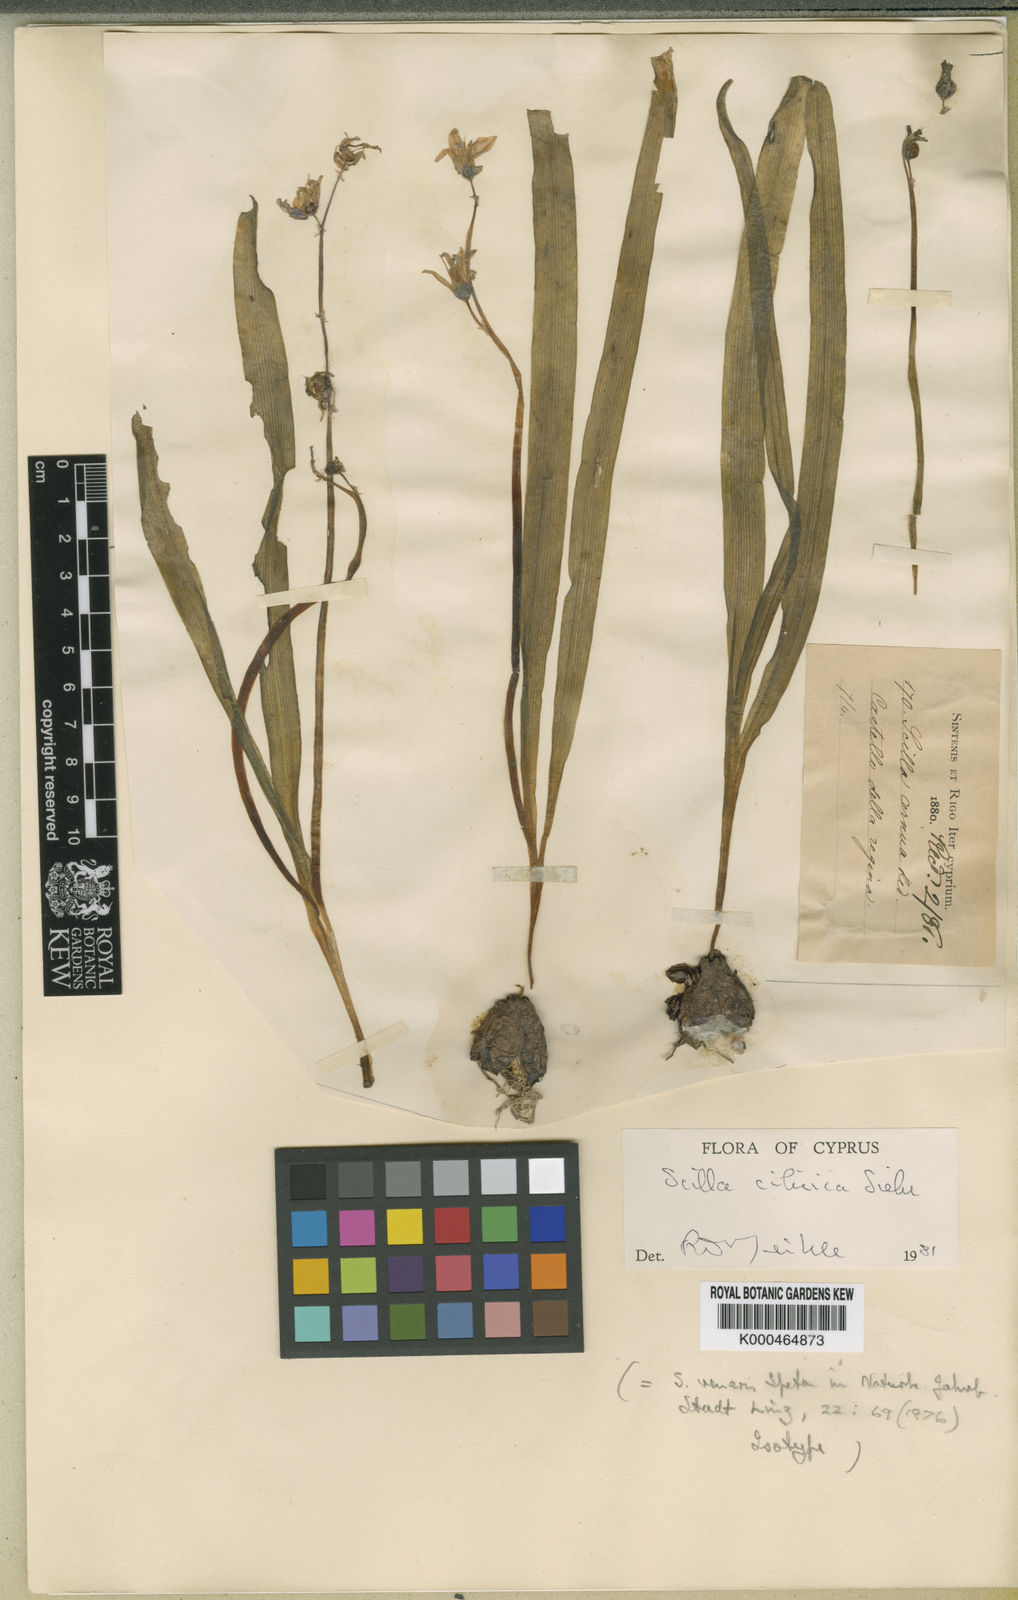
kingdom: Plantae
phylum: Tracheophyta
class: Liliopsida
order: Asparagales
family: Asparagaceae
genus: Scilla
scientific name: Scilla cilicica
